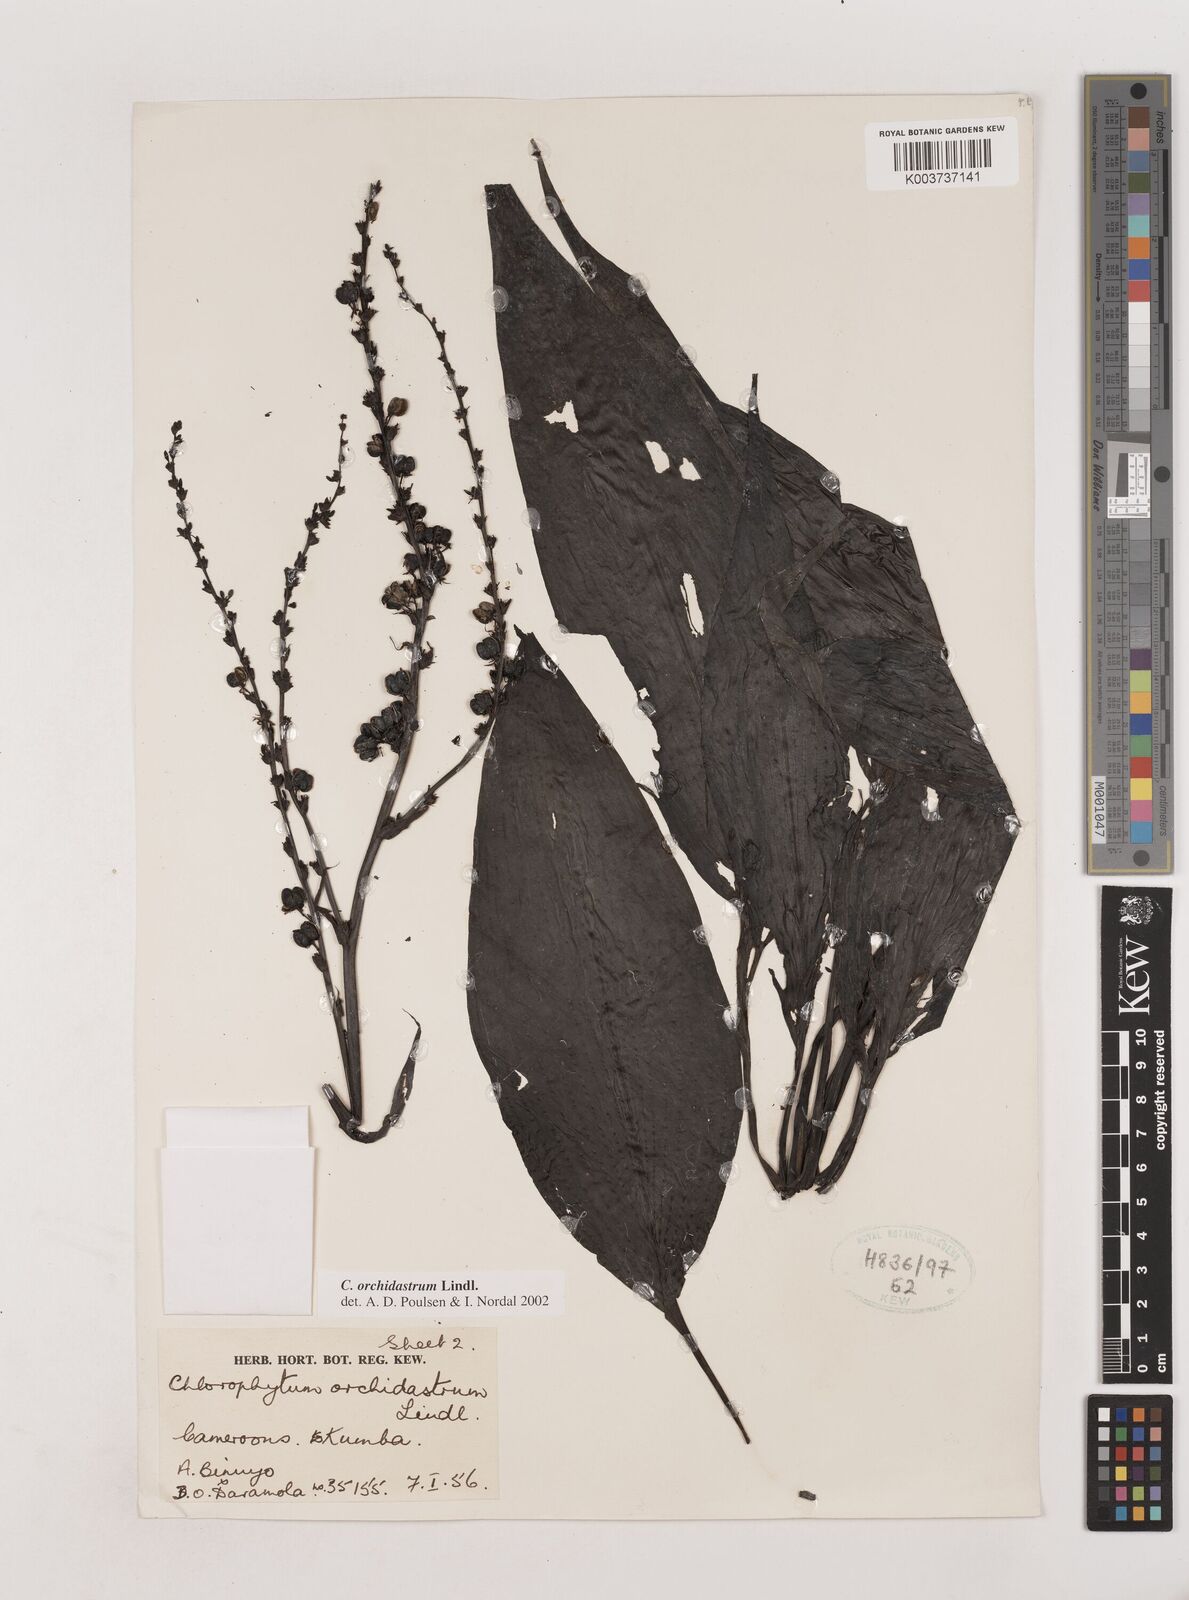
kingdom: Plantae
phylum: Tracheophyta
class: Liliopsida
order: Asparagales
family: Asparagaceae
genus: Chlorophytum
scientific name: Chlorophytum orchidastrum
